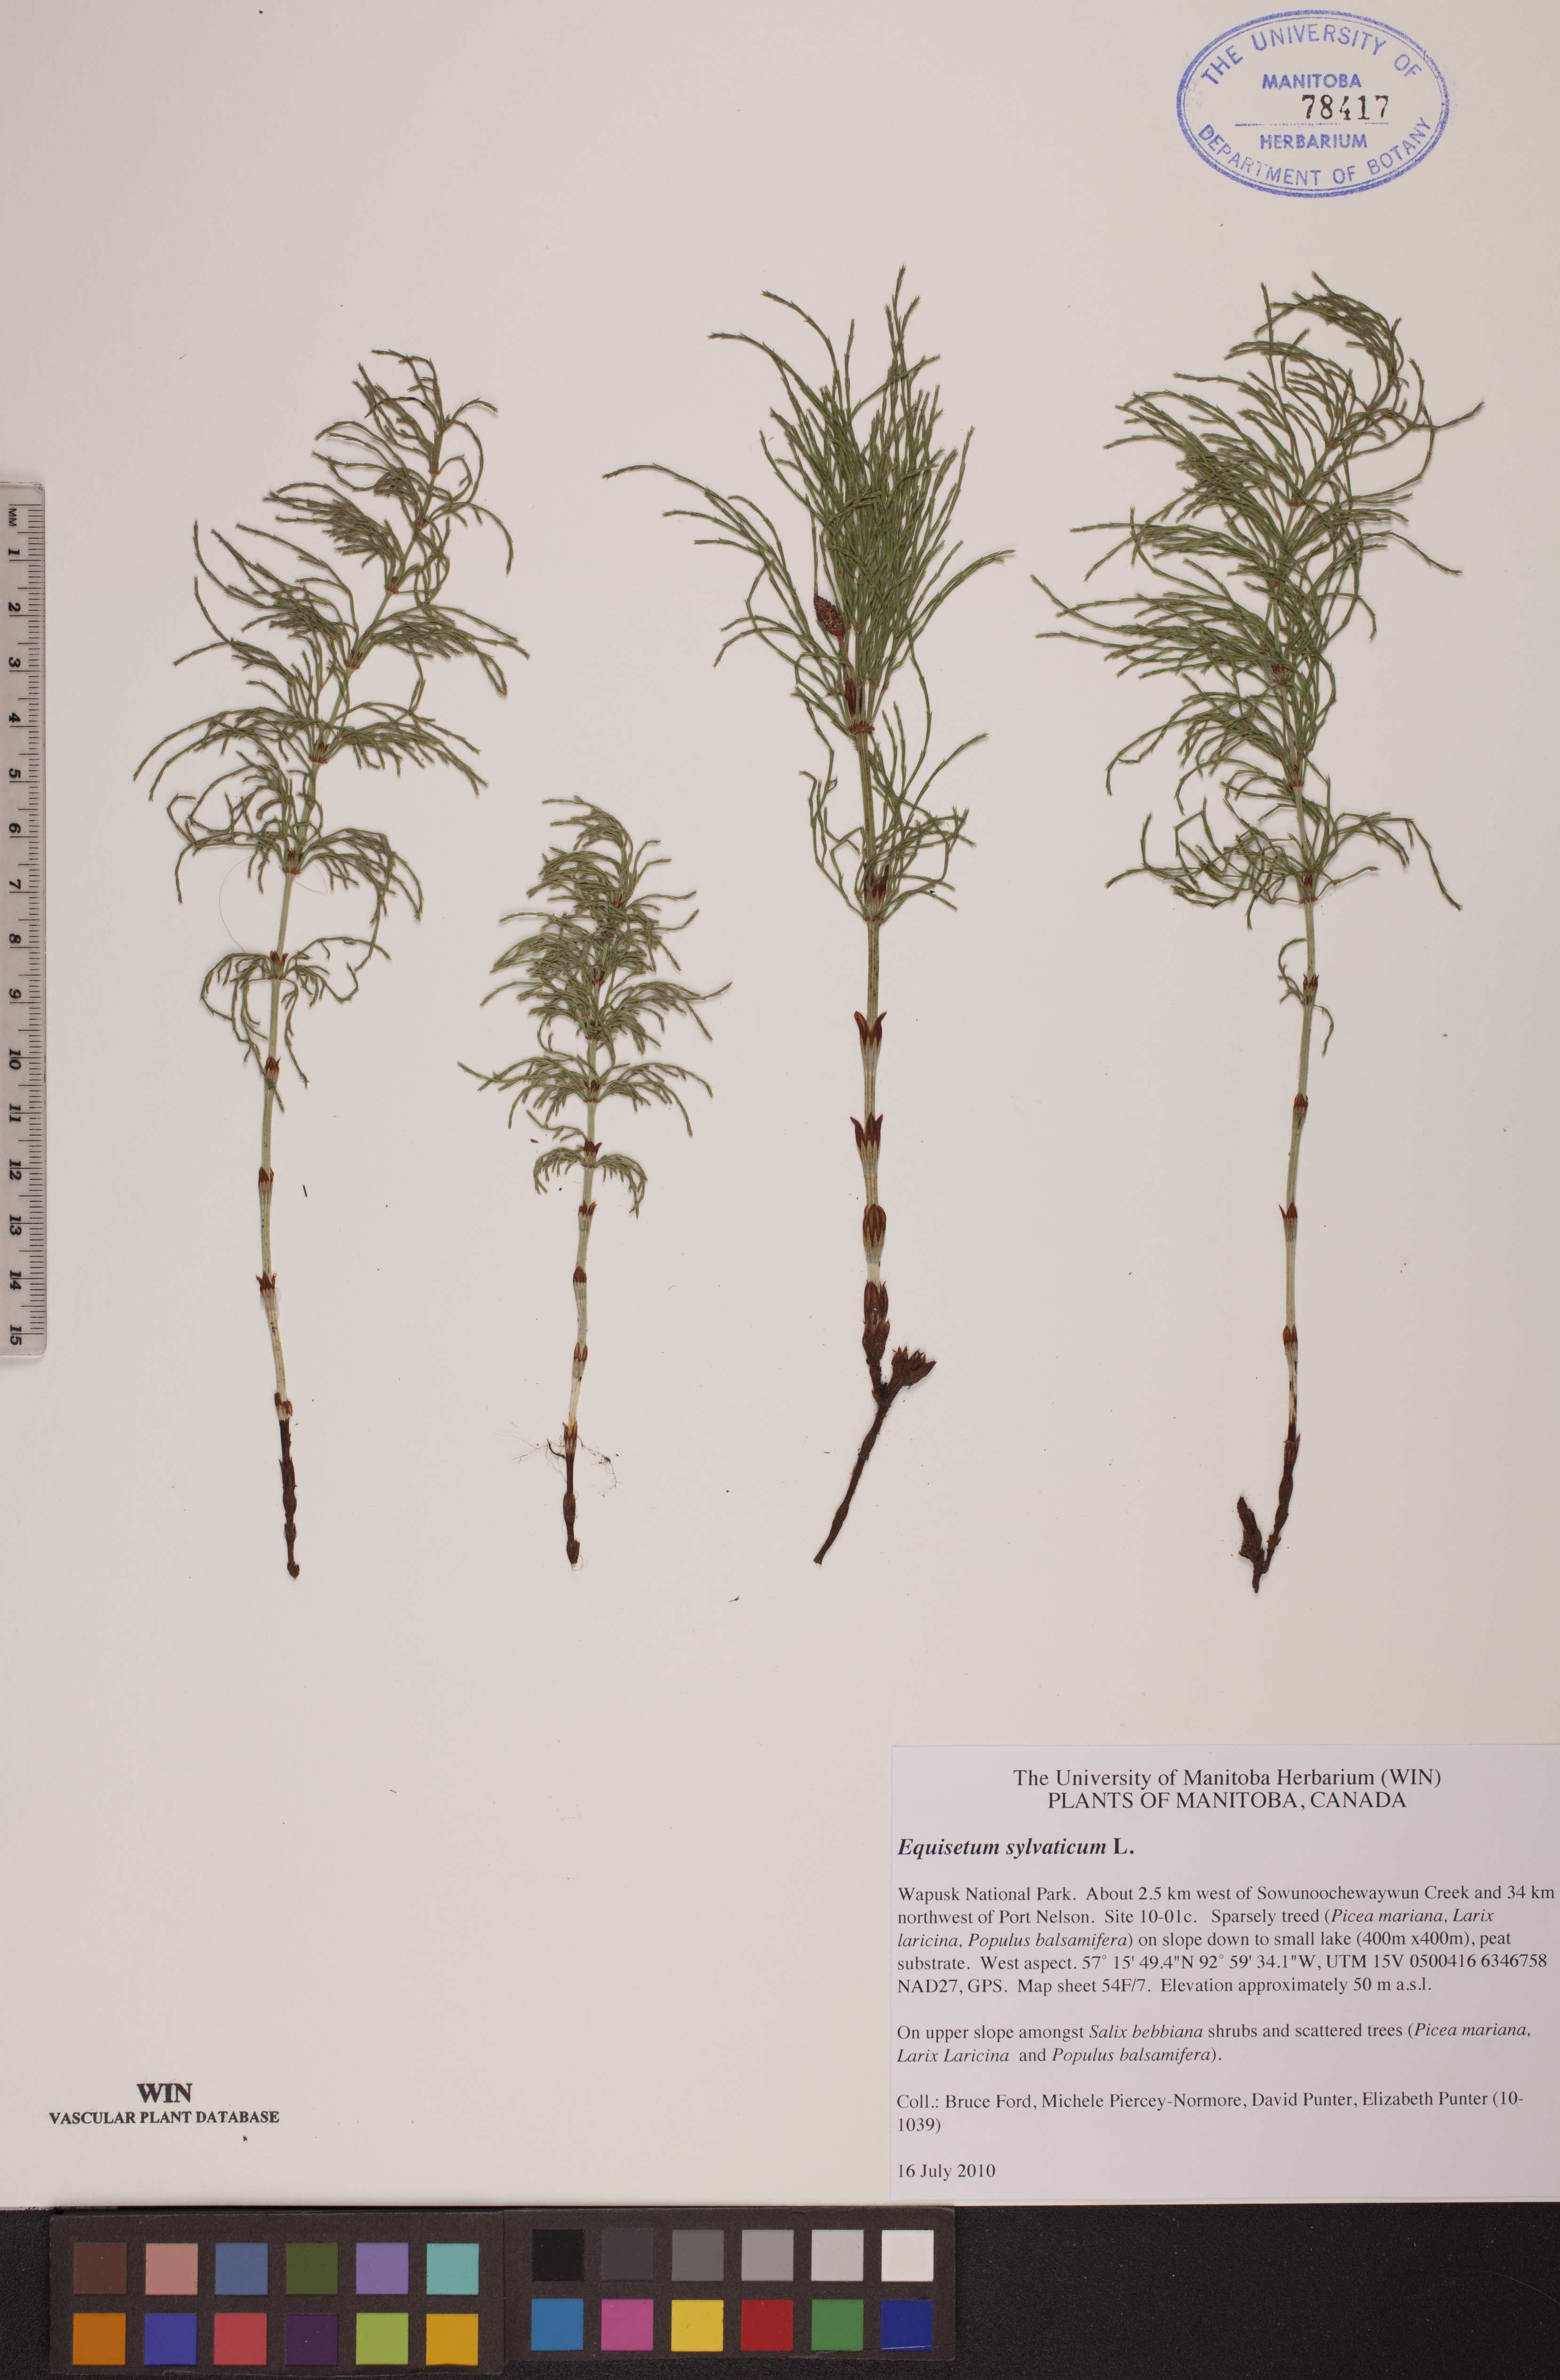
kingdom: Plantae
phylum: Tracheophyta
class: Polypodiopsida
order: Equisetales
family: Equisetaceae
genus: Equisetum
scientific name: Equisetum sylvaticum
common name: Wood horsetail
